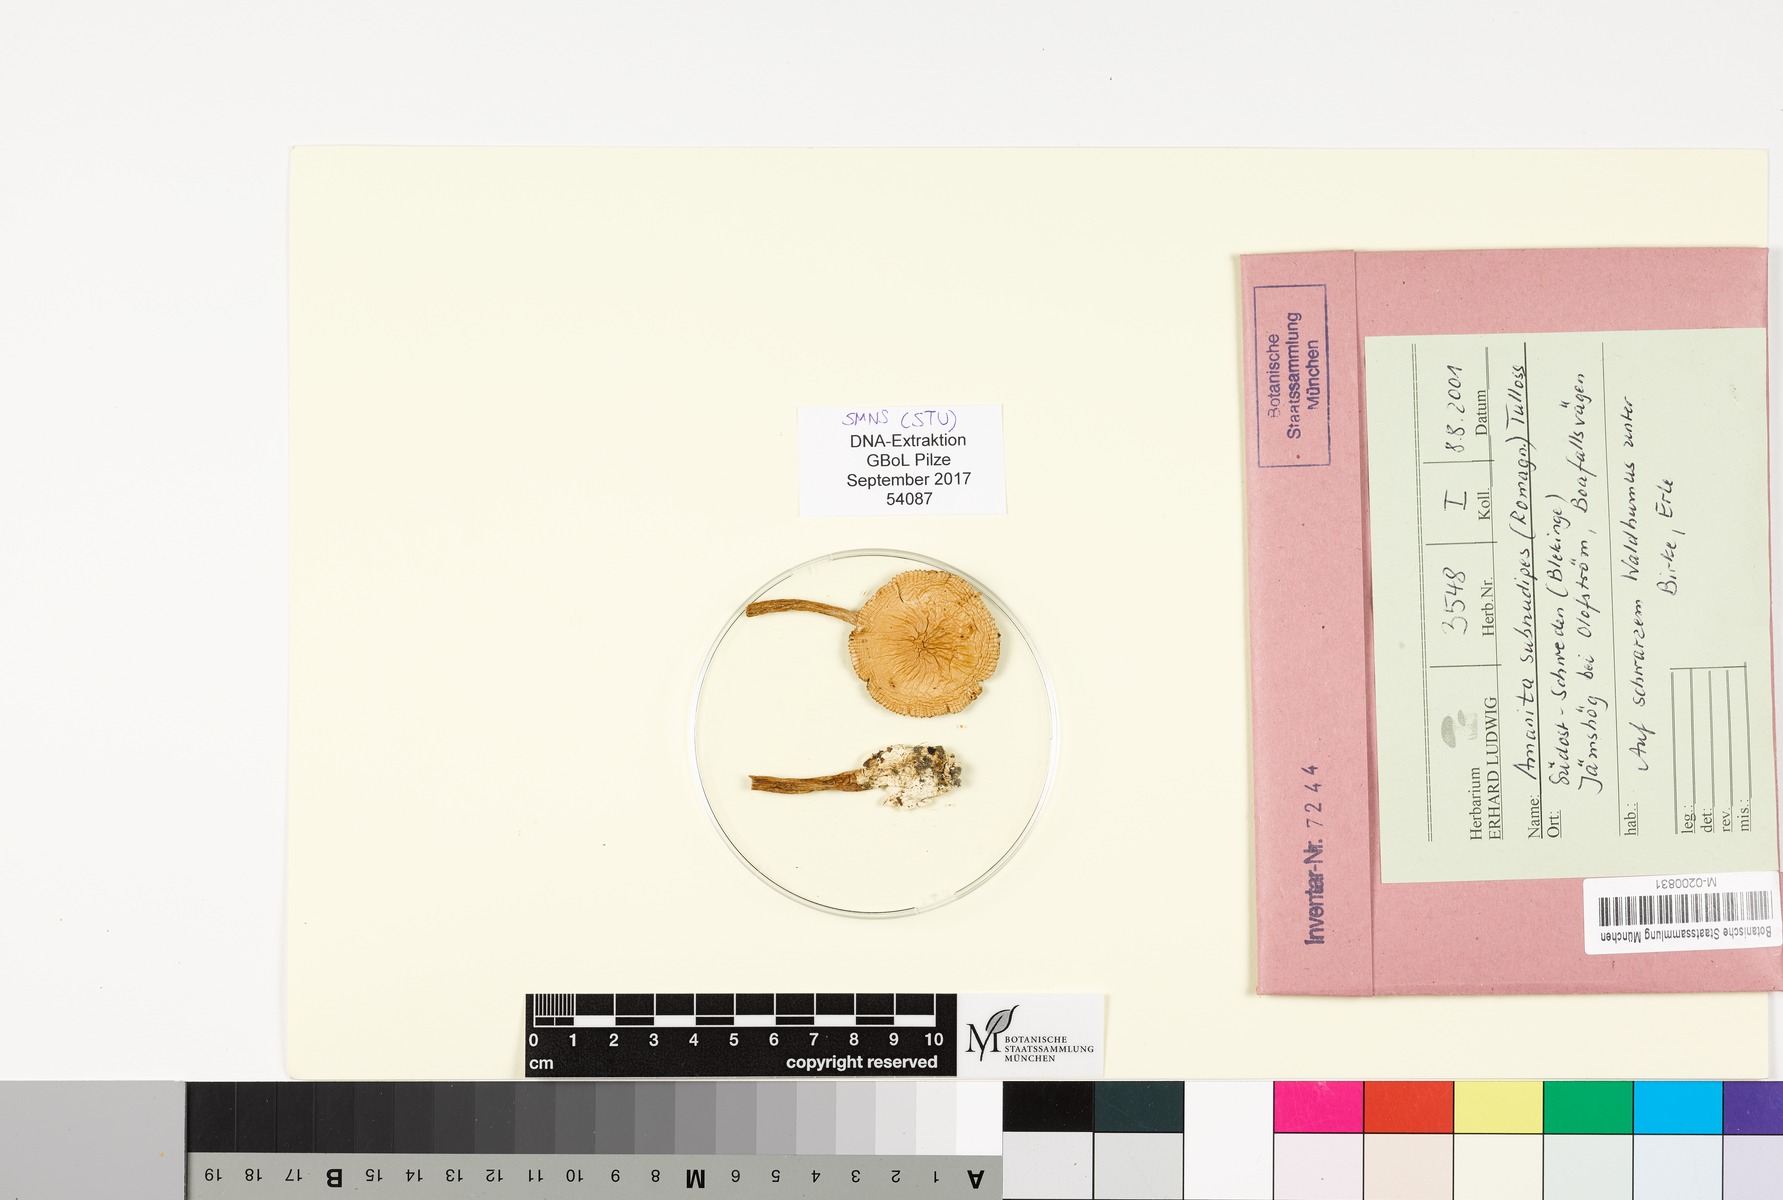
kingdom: Fungi
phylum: Basidiomycota
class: Agaricomycetes
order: Agaricales
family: Amanitaceae
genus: Amanita
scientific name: Amanita subnudipes
